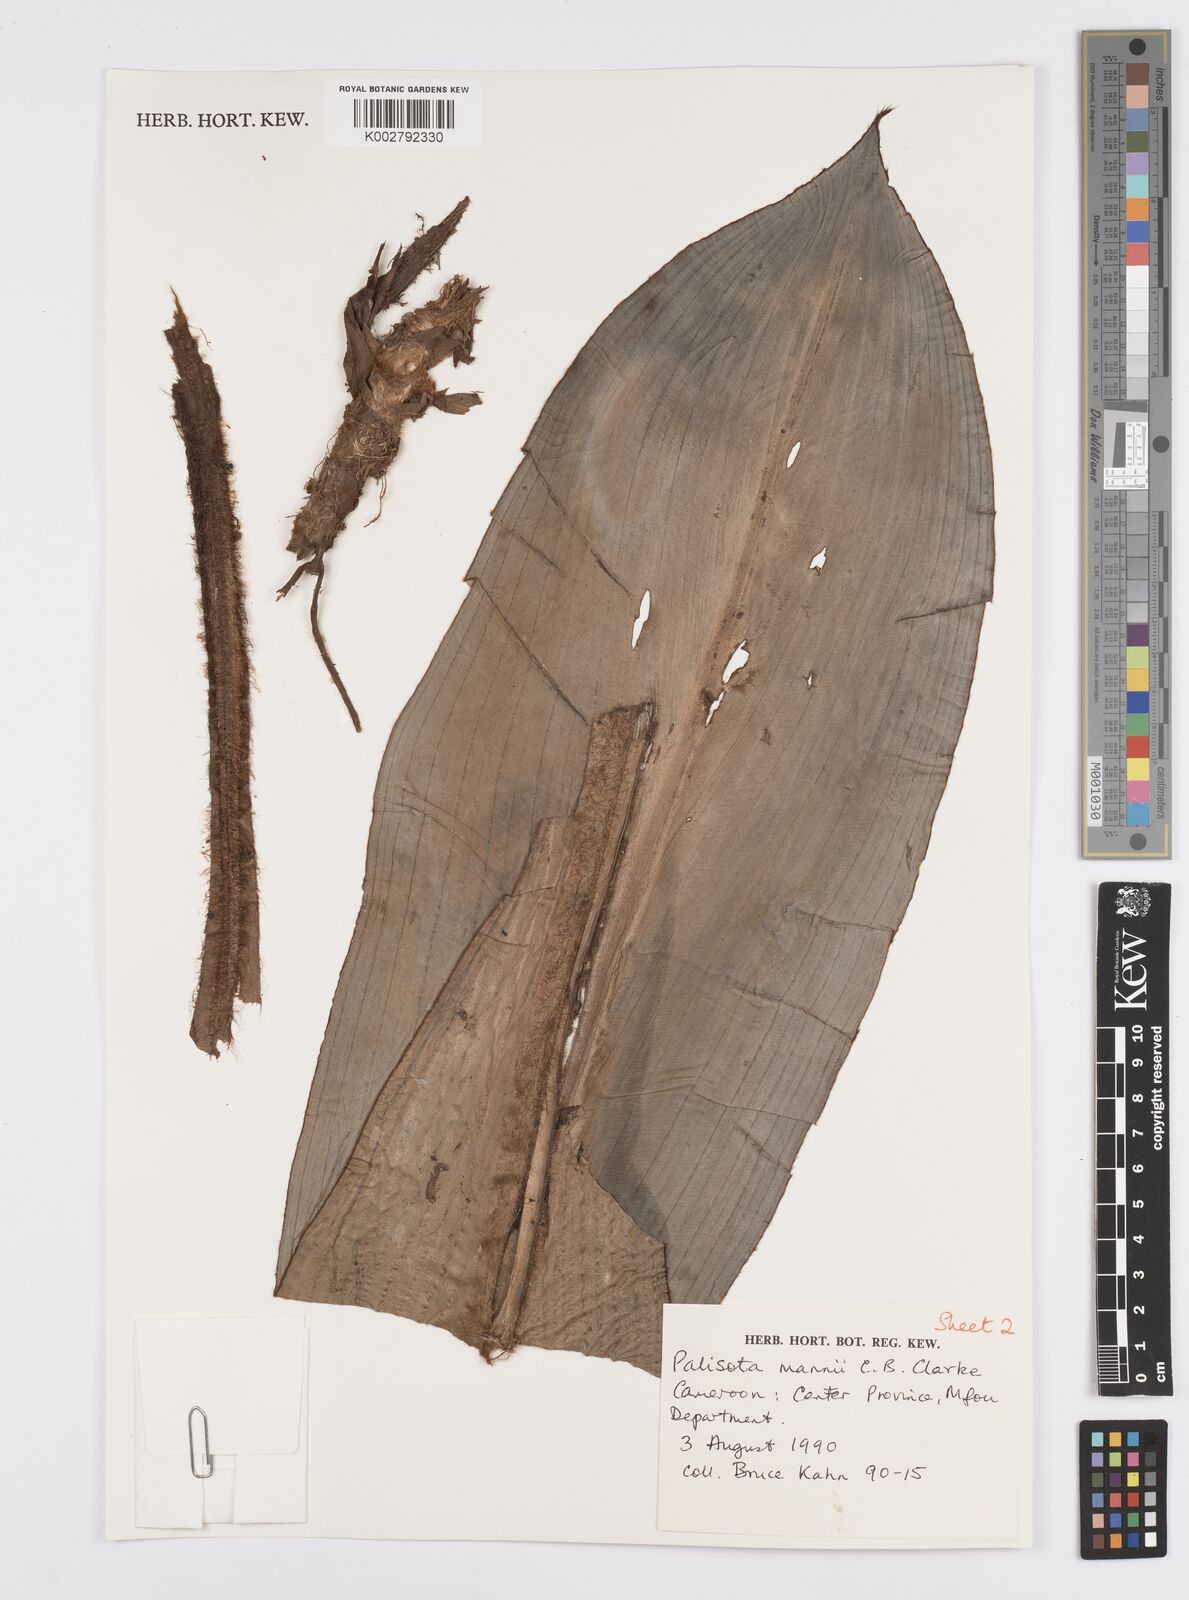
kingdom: Plantae
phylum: Tracheophyta
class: Liliopsida
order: Commelinales
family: Commelinaceae
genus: Palisota
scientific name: Palisota mannii
